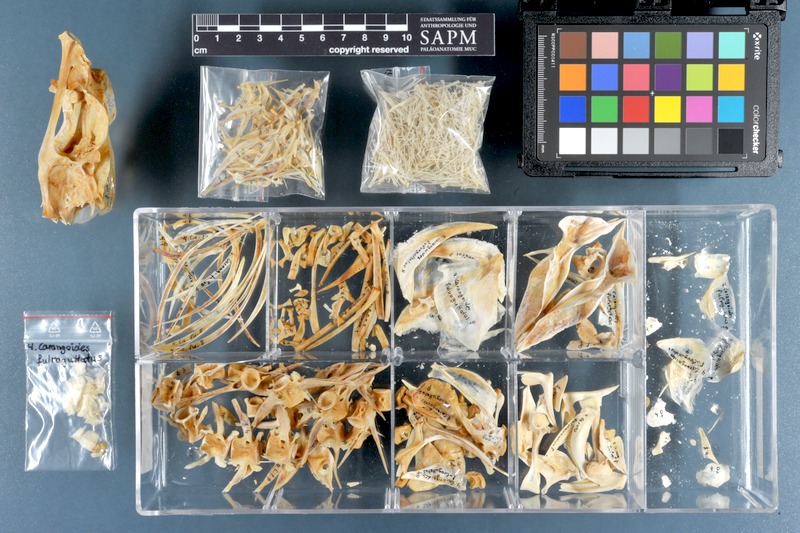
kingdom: Animalia
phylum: Chordata
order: Perciformes
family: Carangidae
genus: Carangoides
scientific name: Carangoides fulvoguttatus
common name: Yellowspotted trevally
